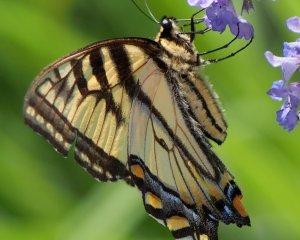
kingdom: Animalia
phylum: Arthropoda
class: Insecta
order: Lepidoptera
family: Papilionidae
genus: Pterourus
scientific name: Pterourus canadensis
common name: Canadian Tiger Swallowtail
